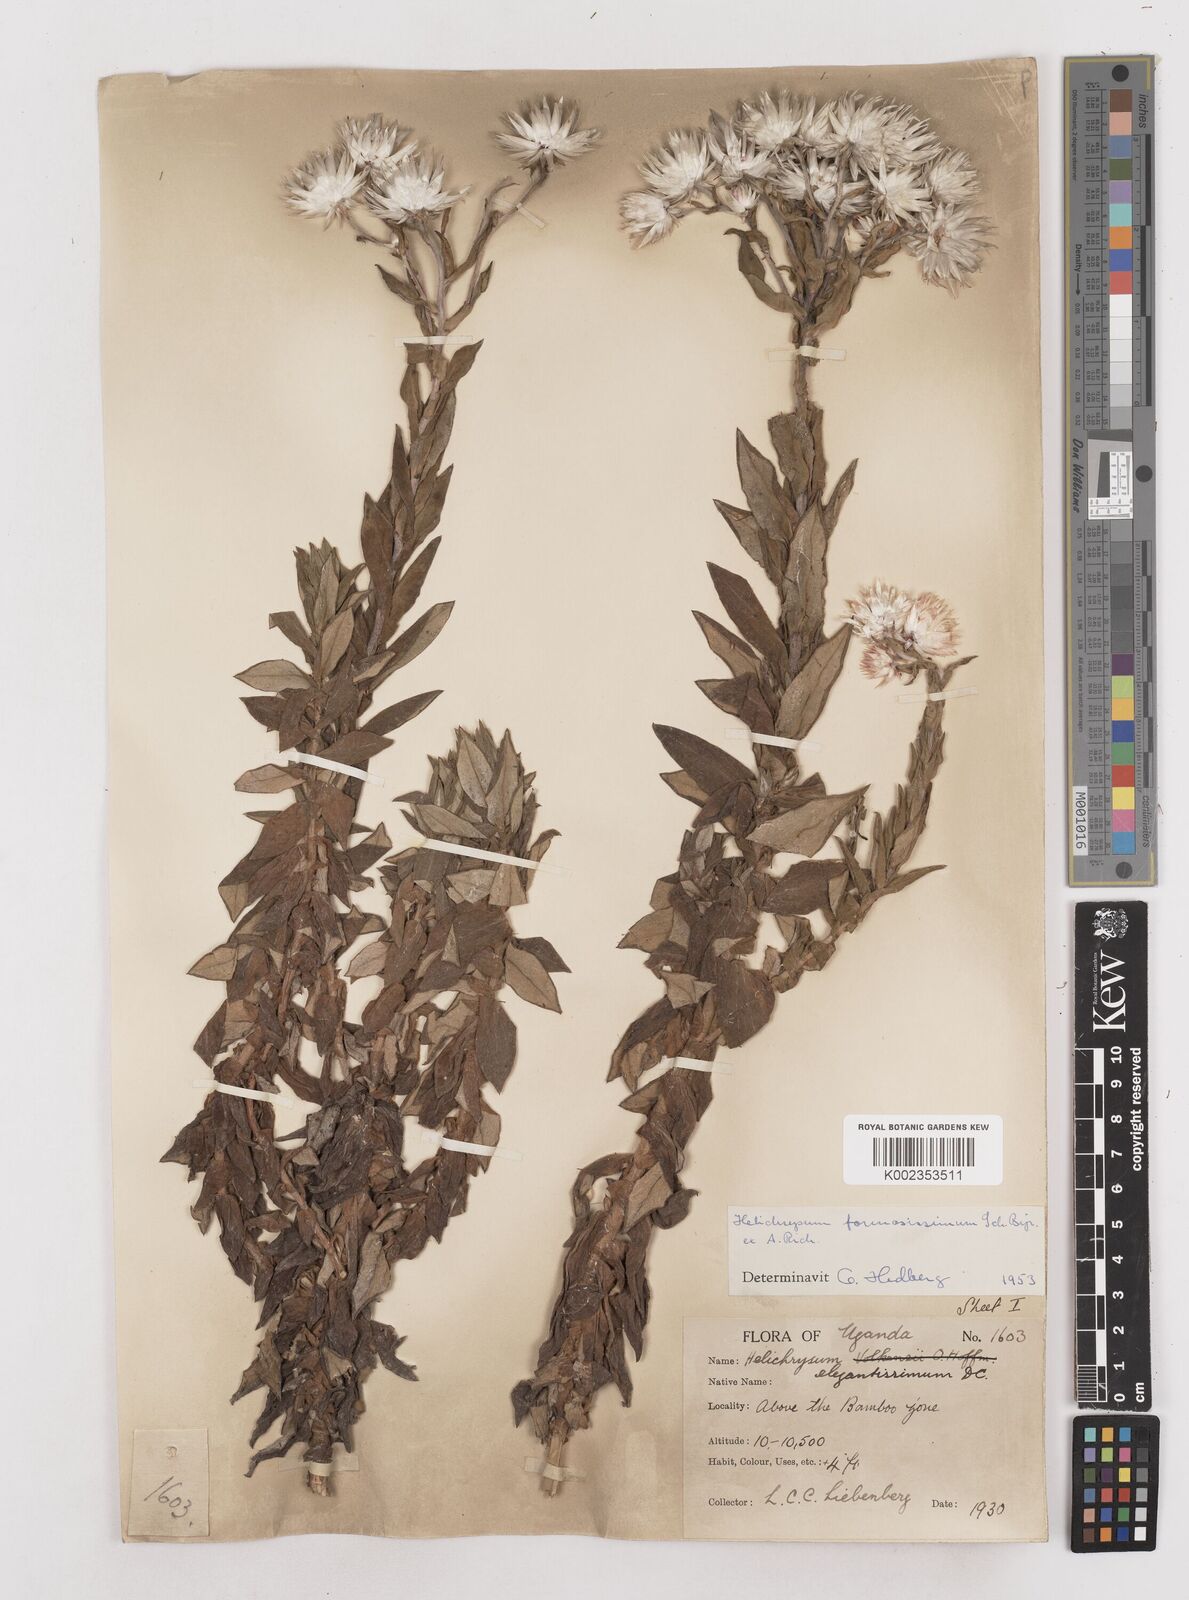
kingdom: Plantae
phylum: Tracheophyta
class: Magnoliopsida
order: Asterales
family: Asteraceae
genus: Helichrysum
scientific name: Helichrysum formosissimum
